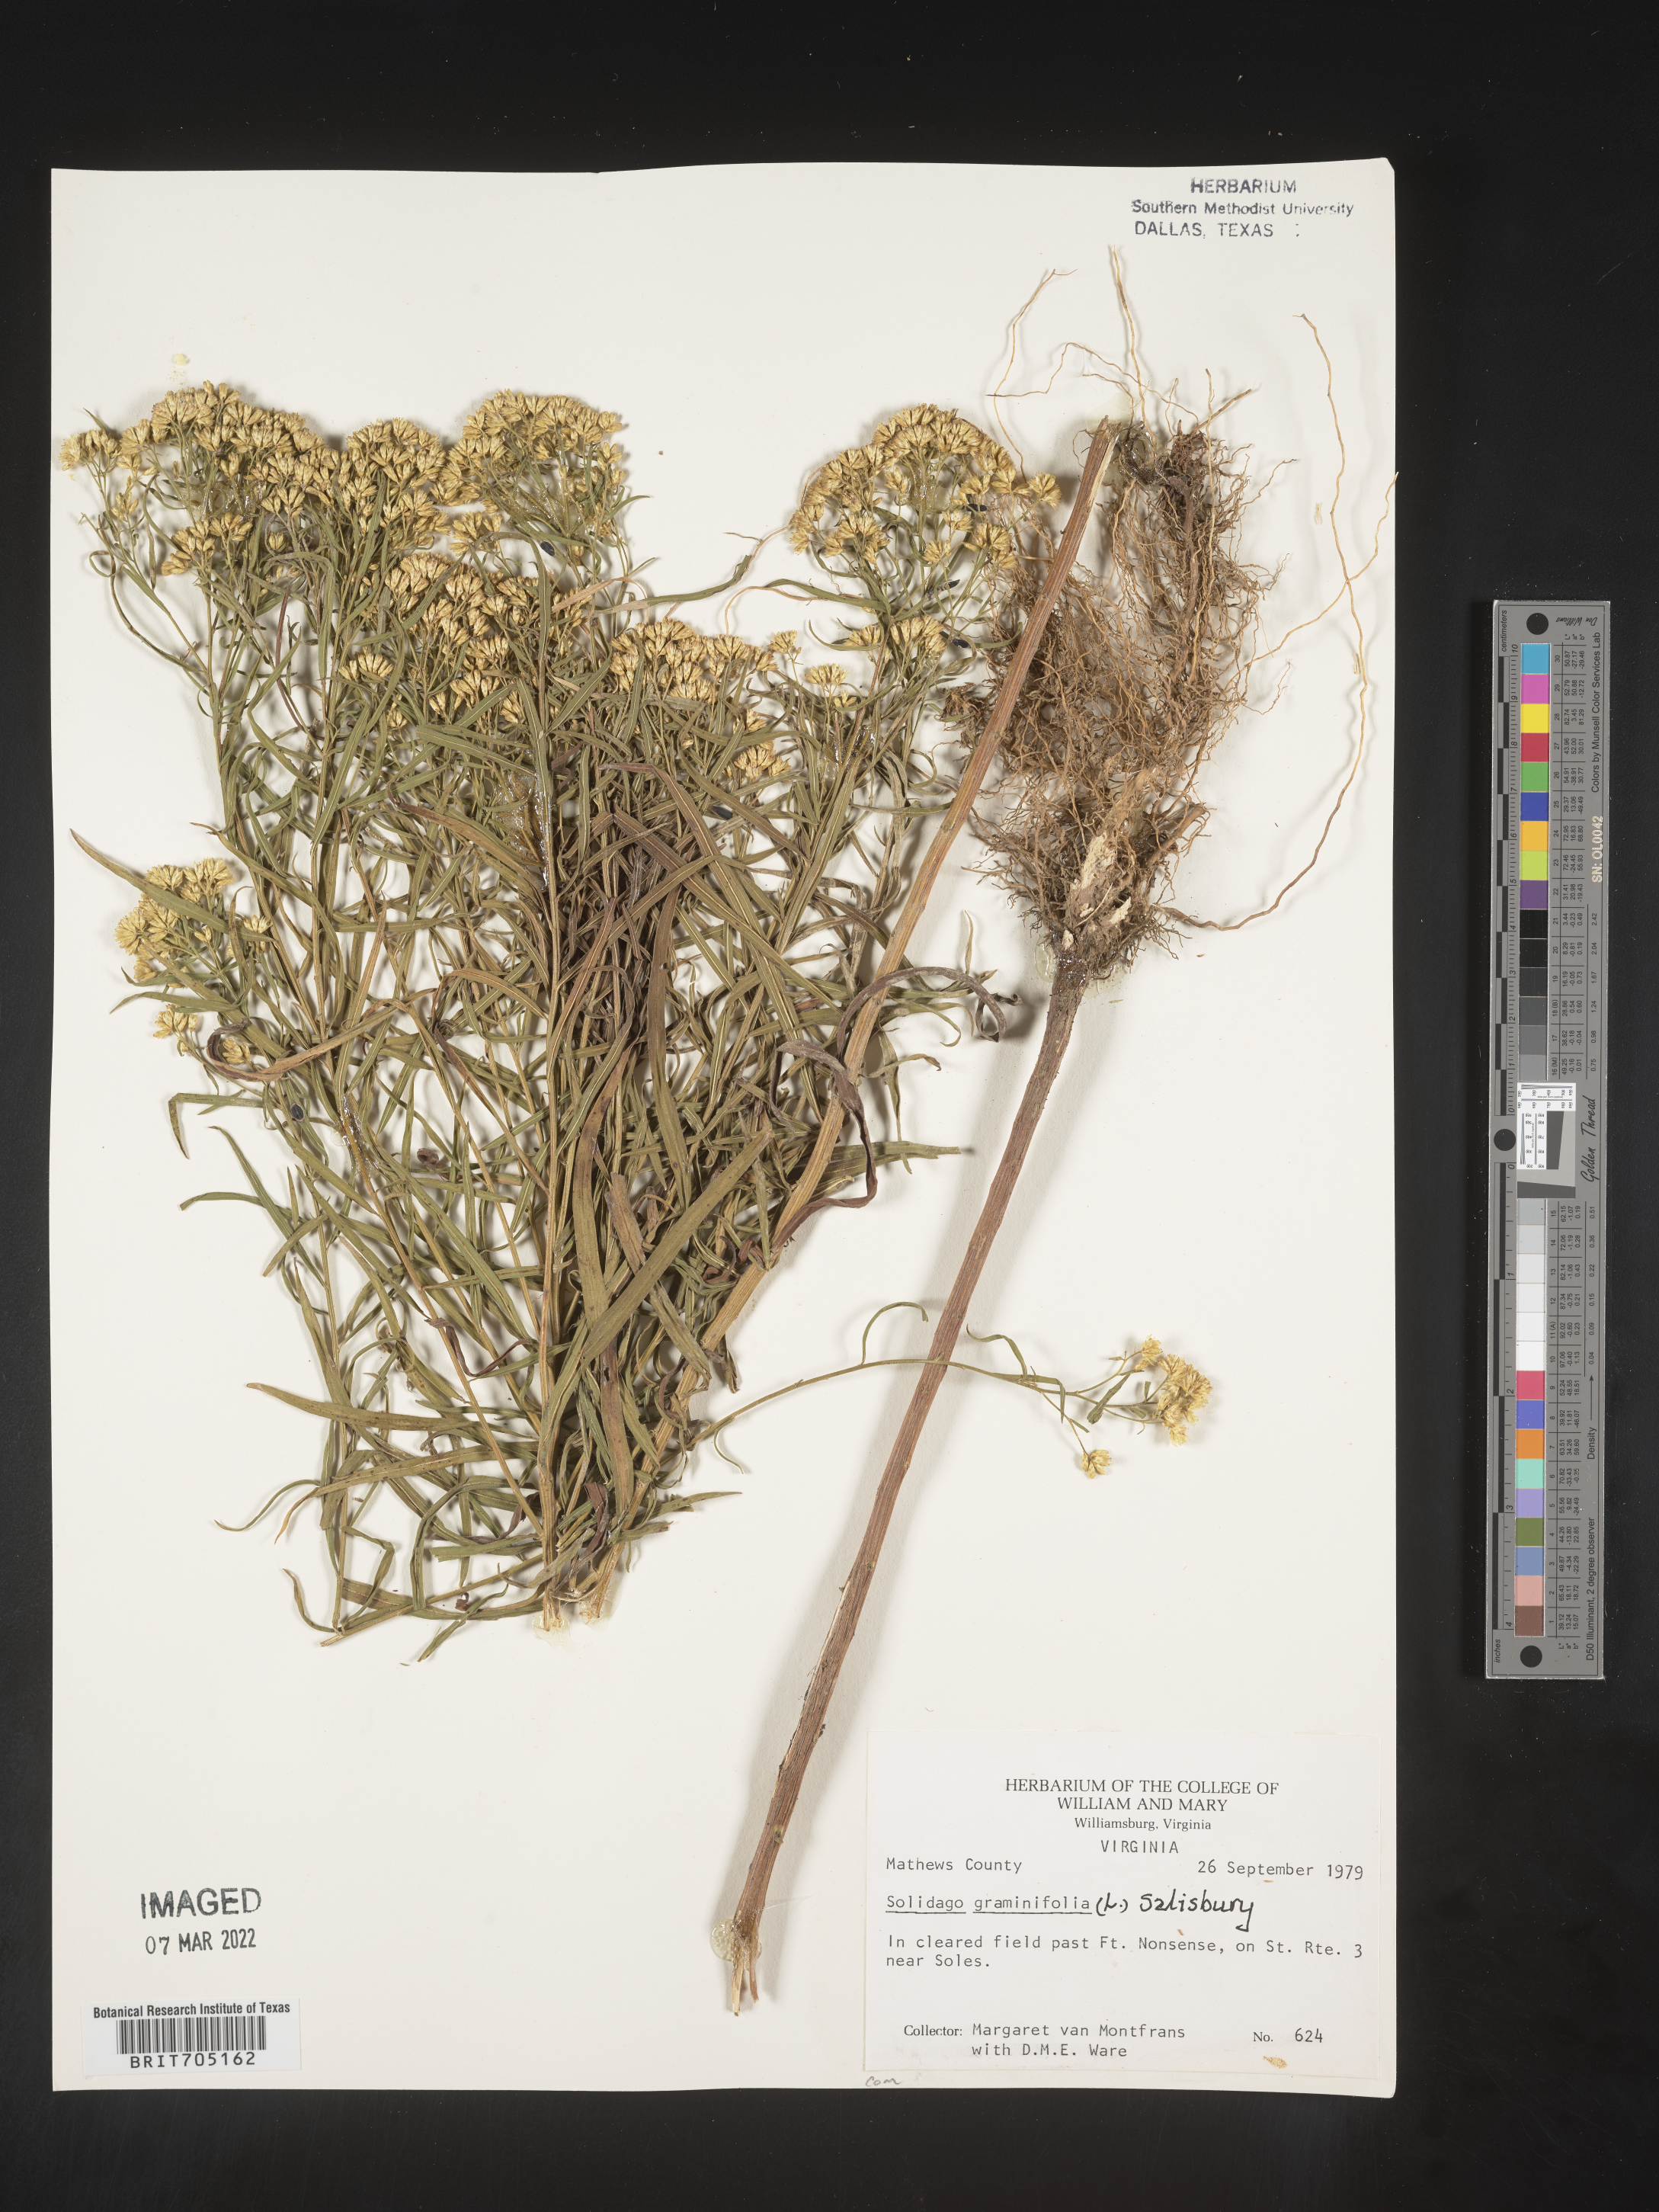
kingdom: Plantae
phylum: Tracheophyta
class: Magnoliopsida
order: Asterales
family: Asteraceae
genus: Euthamia
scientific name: Euthamia graminifolia
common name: Common goldentop
